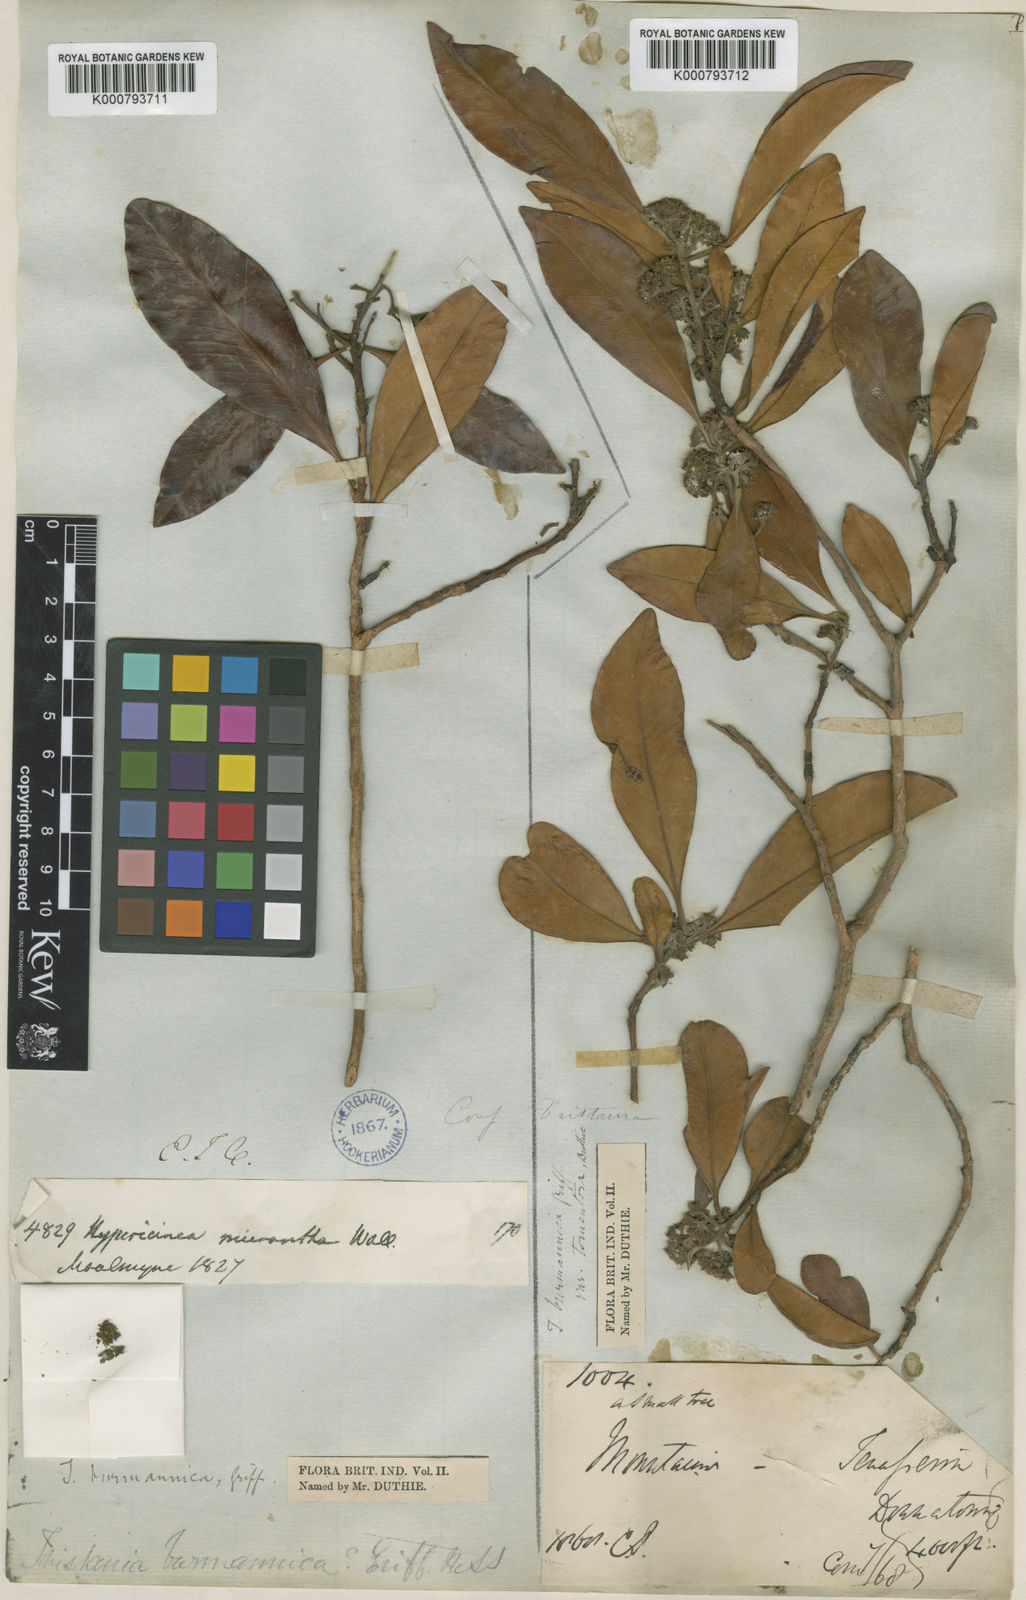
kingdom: Plantae
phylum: Tracheophyta
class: Magnoliopsida
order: Myrtales
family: Myrtaceae
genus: Tristaniopsis
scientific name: Tristaniopsis burmanica
